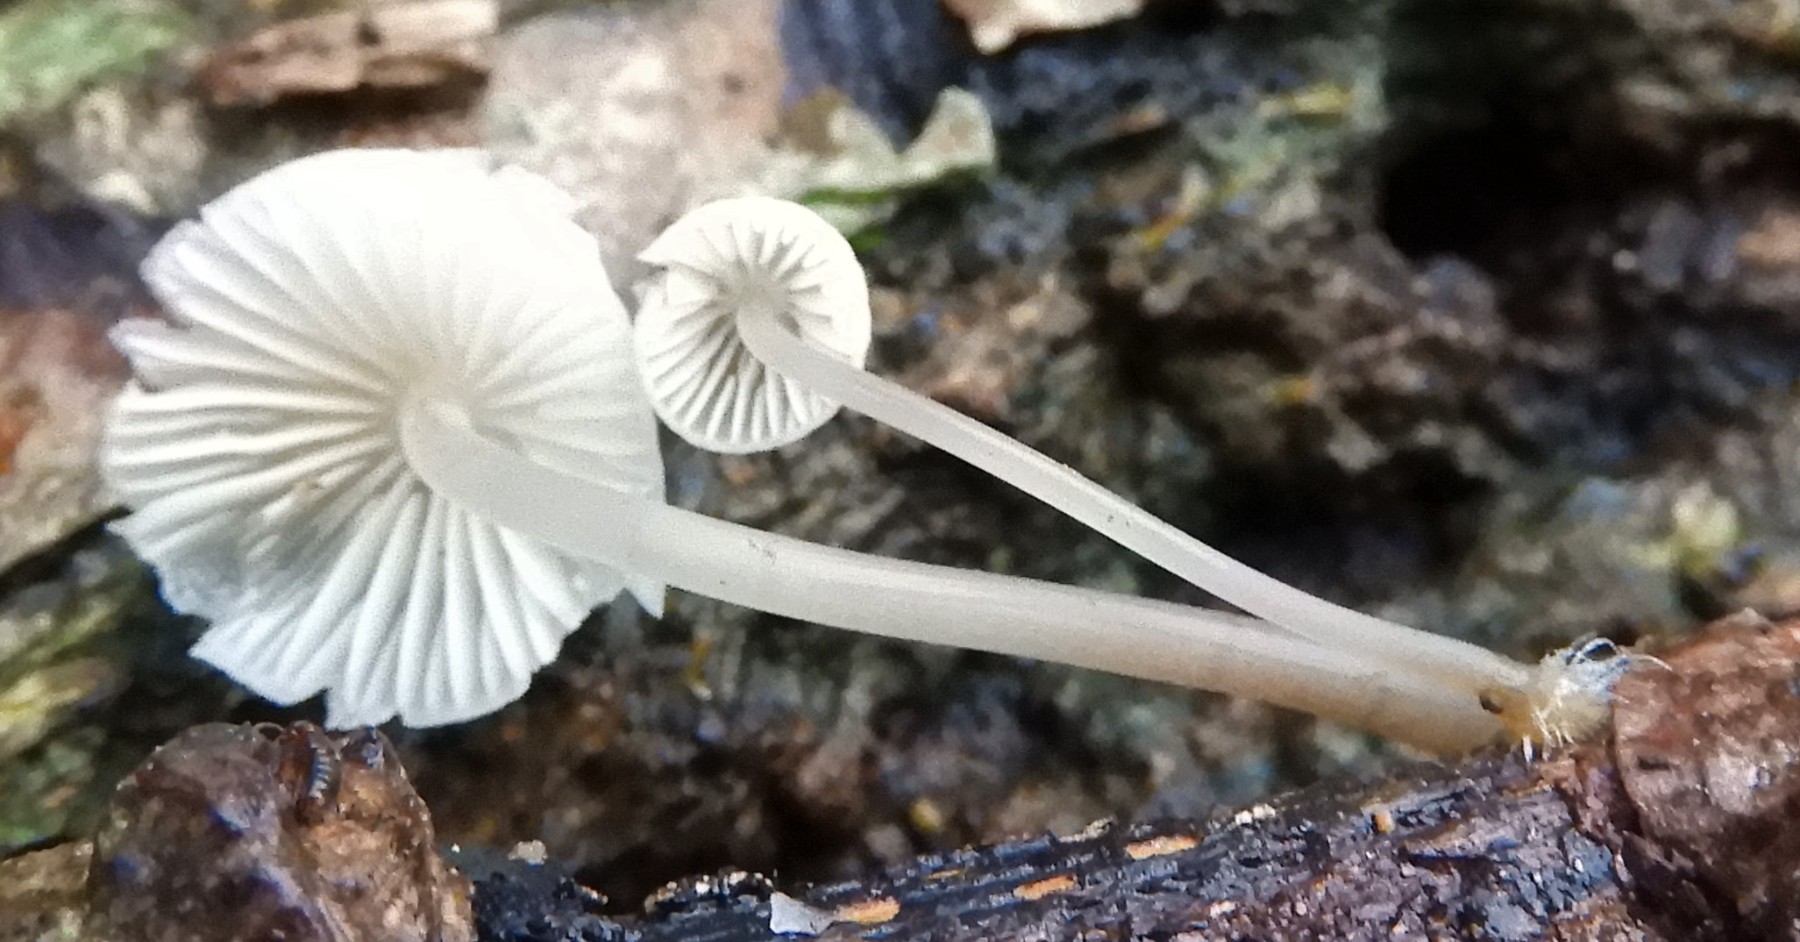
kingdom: Fungi
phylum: Basidiomycota
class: Agaricomycetes
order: Agaricales
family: Mycenaceae
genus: Mycena
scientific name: Mycena
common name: huesvamp
